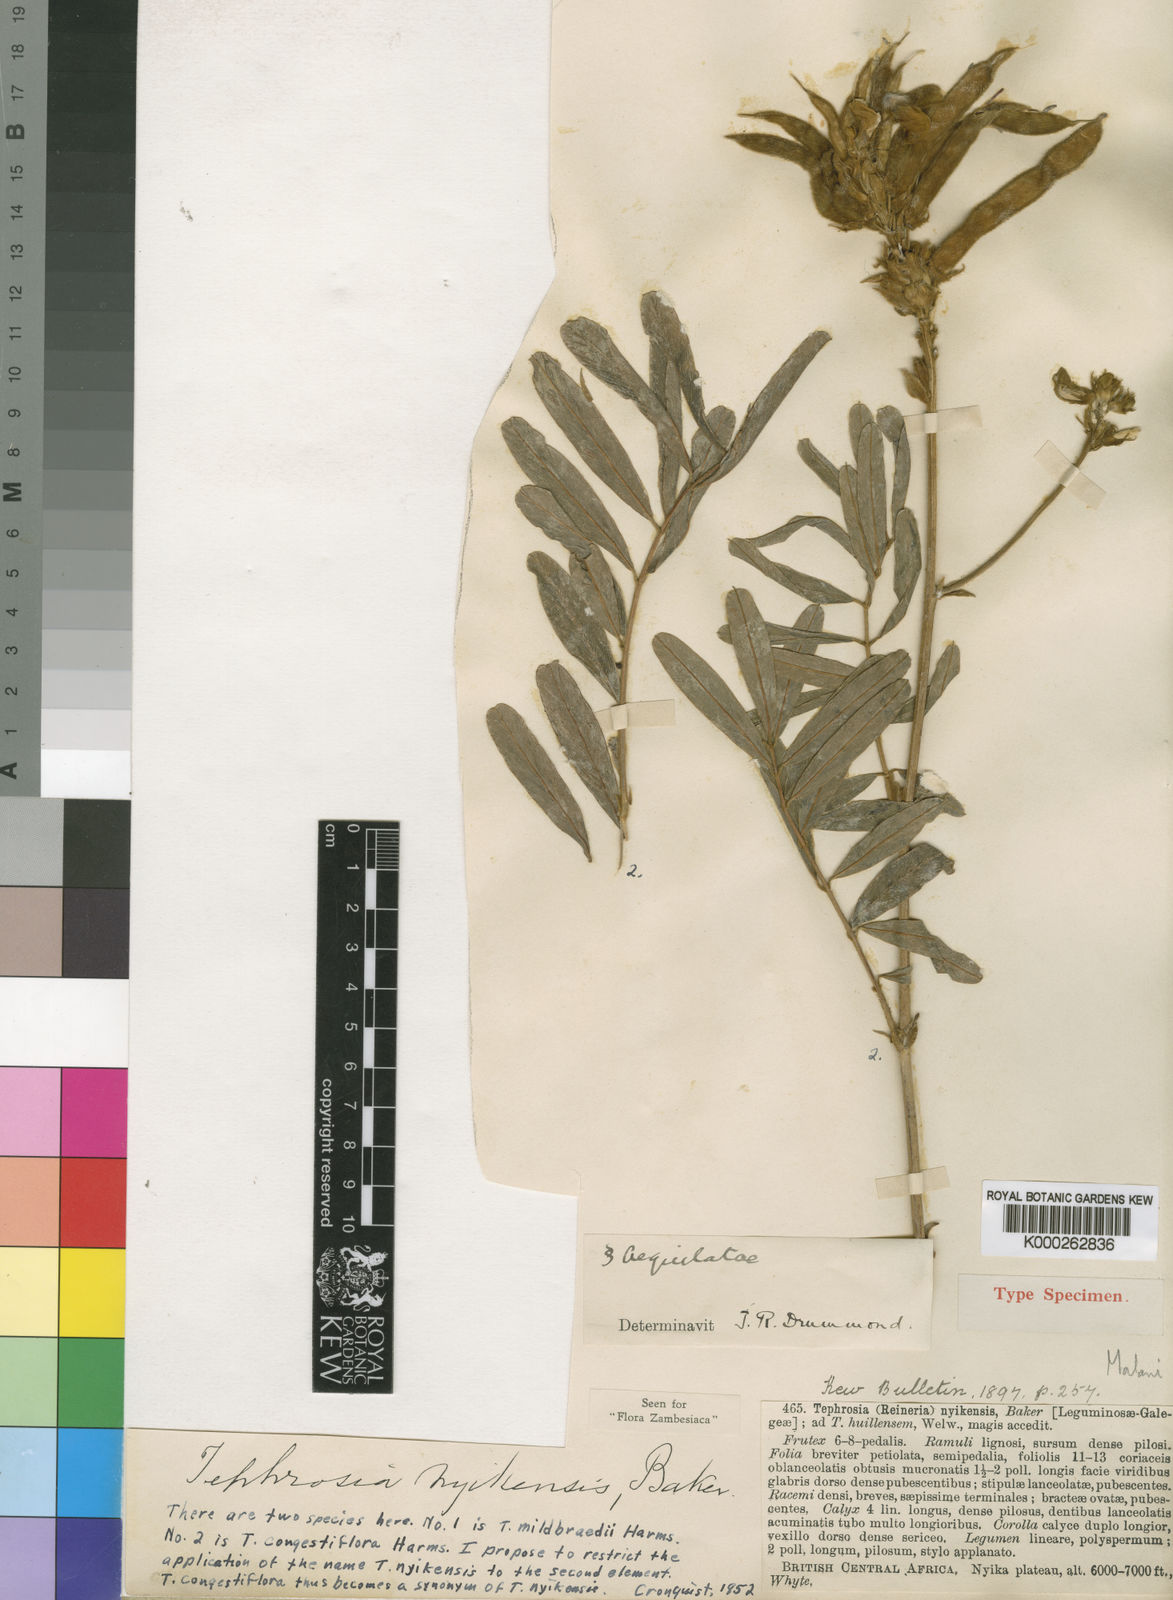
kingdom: Plantae
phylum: Tracheophyta
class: Magnoliopsida
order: Fabales
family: Fabaceae
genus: Tephrosia
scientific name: Tephrosia nyikensis
